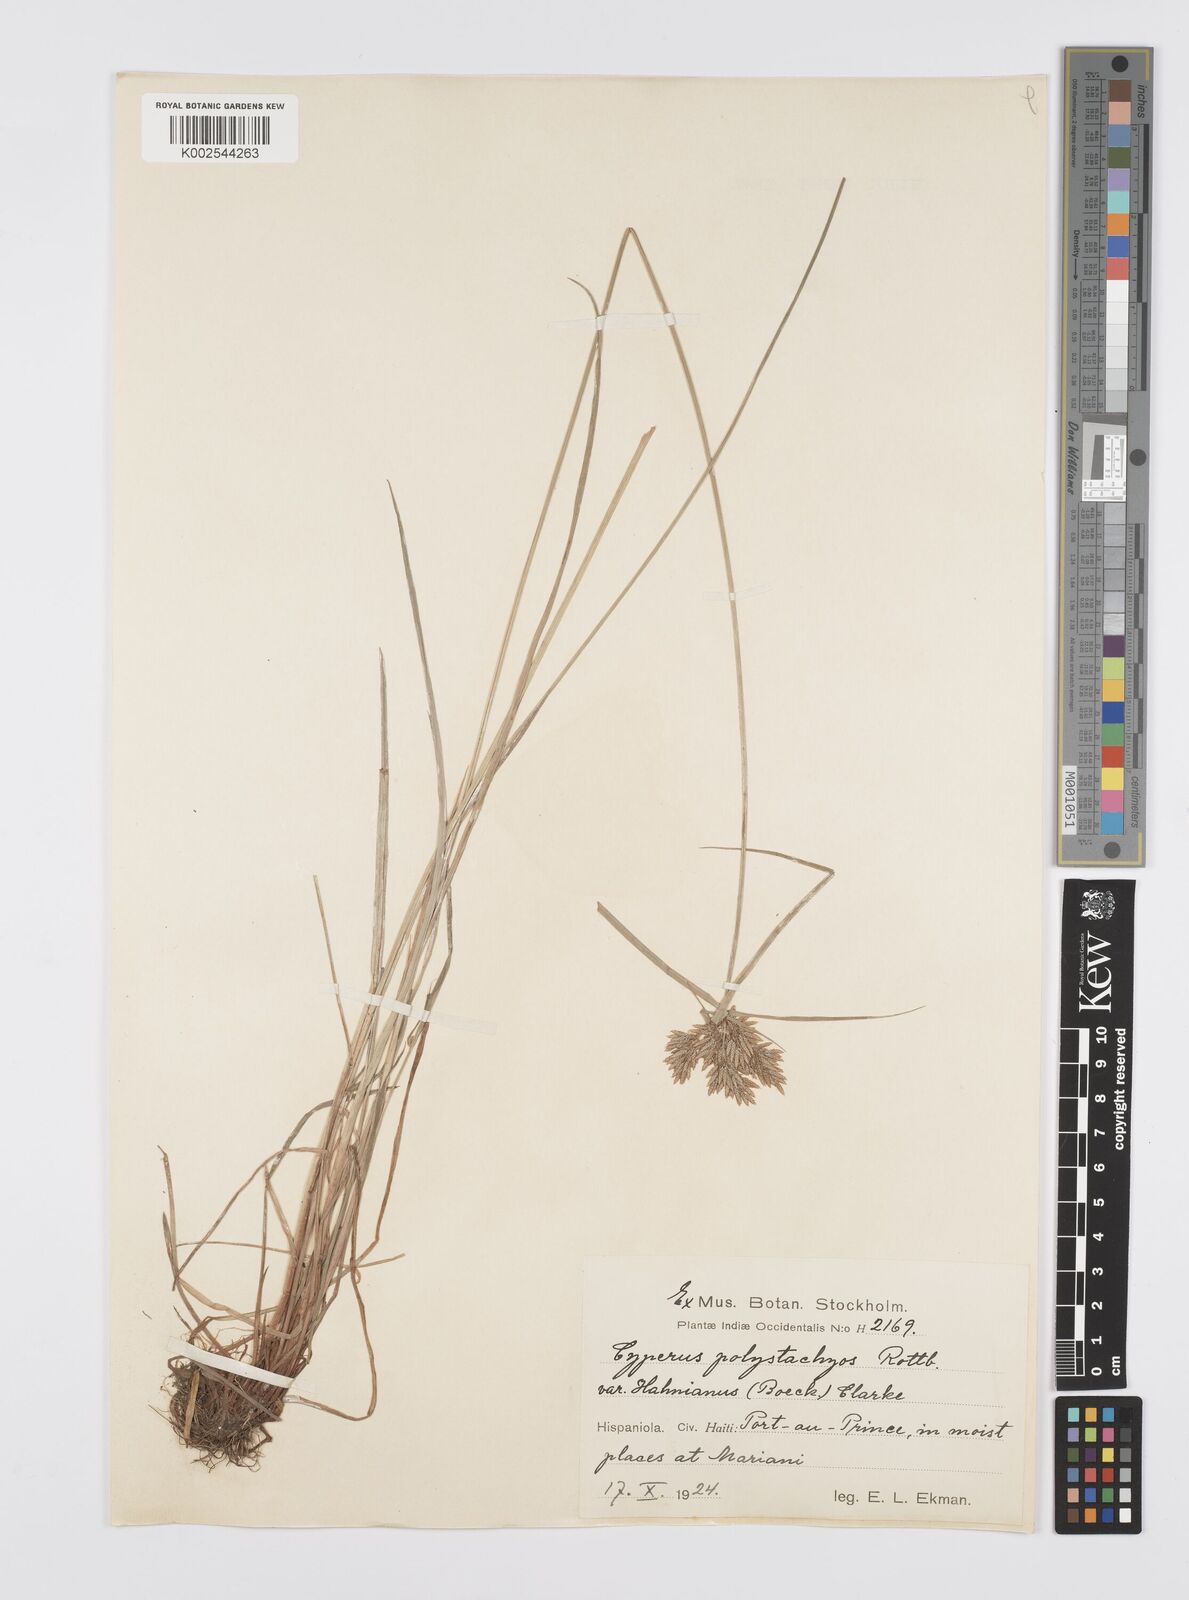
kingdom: Plantae
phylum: Tracheophyta
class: Liliopsida
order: Poales
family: Cyperaceae
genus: Cyperus
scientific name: Cyperus polystachyos
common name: Bunchy flat sedge
